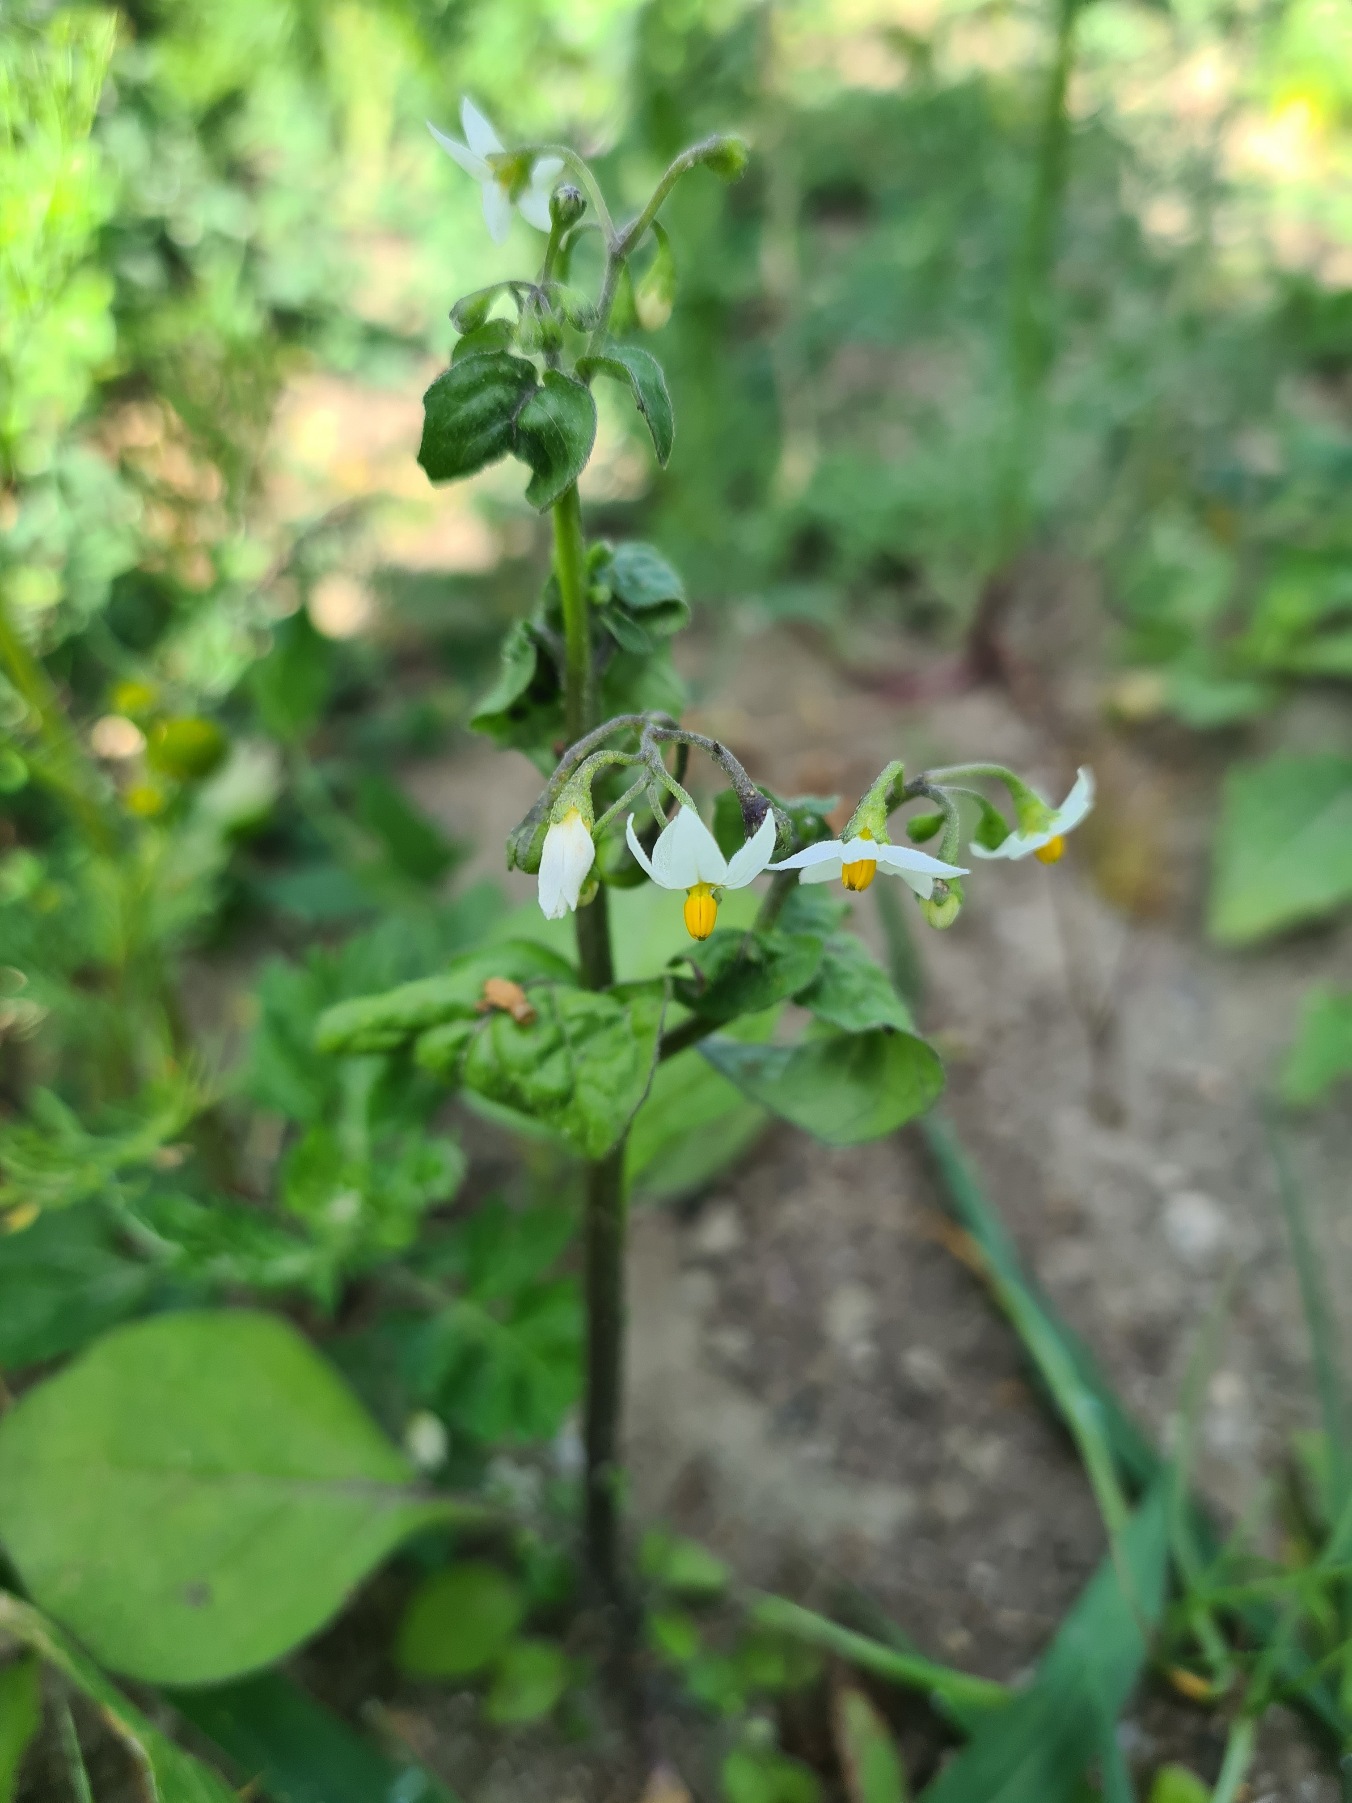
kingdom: Plantae
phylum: Tracheophyta
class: Magnoliopsida
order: Solanales
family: Solanaceae
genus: Solanum
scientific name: Solanum nigrum
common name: Sort natskygge
